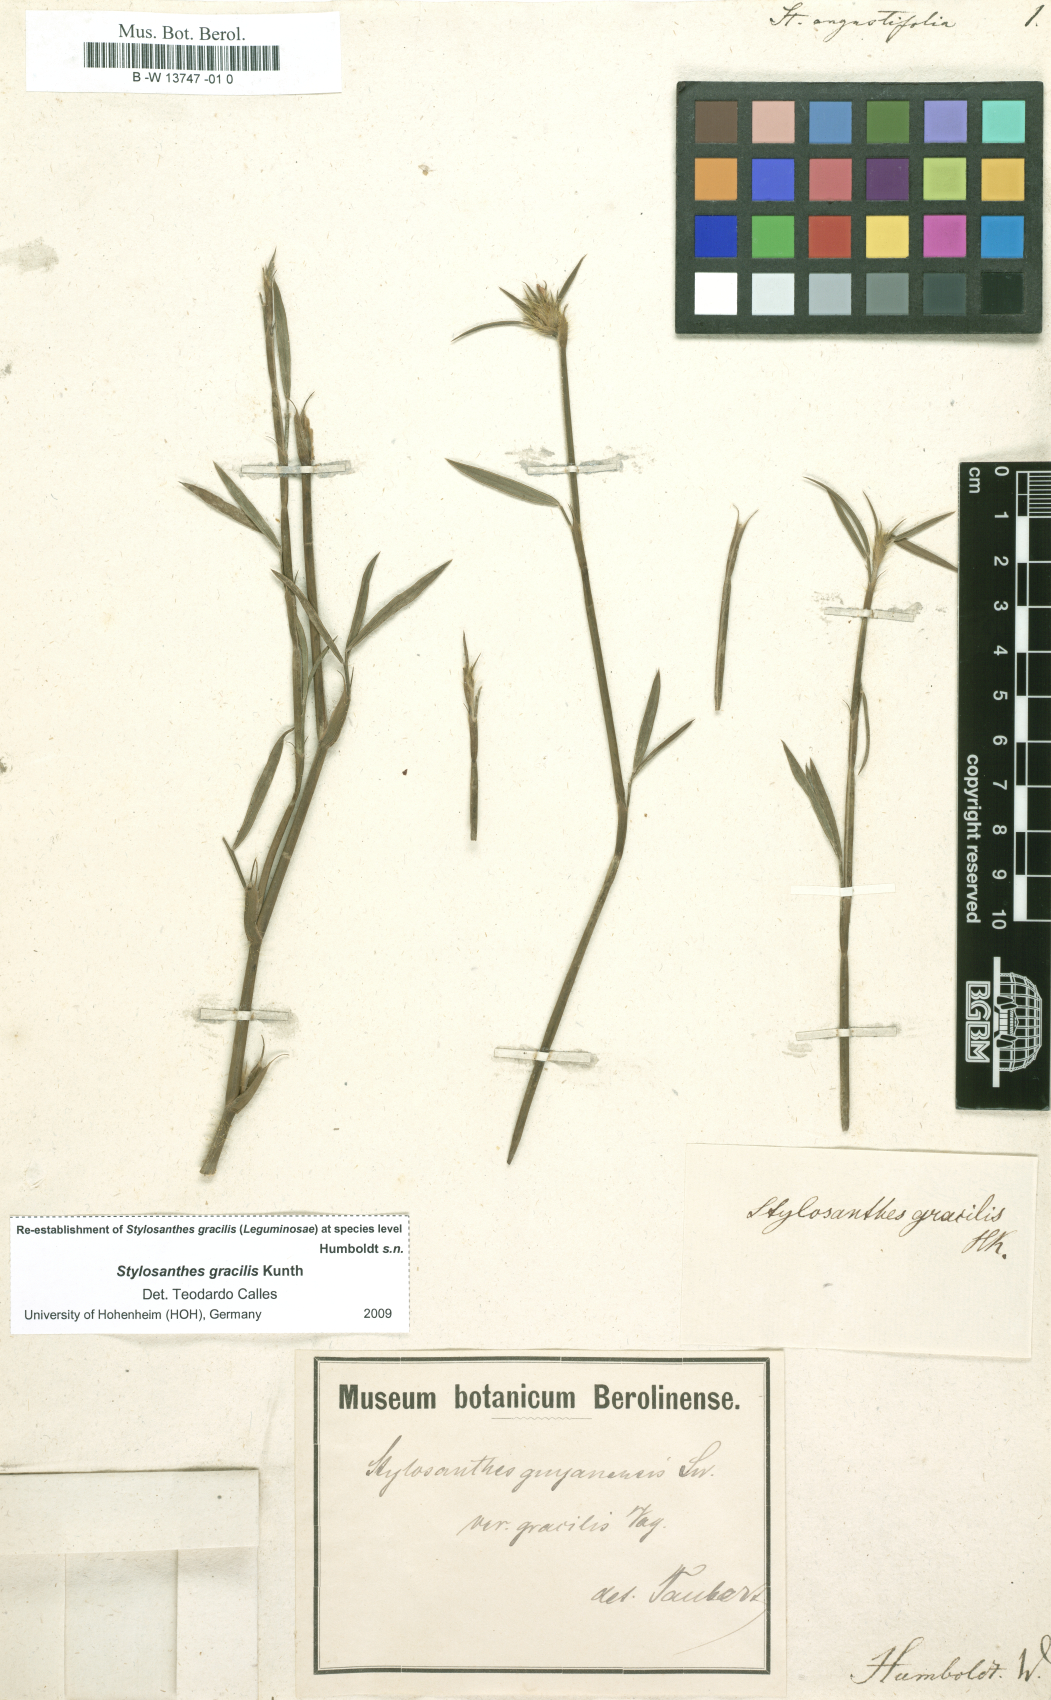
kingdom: Plantae
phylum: Tracheophyta
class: Magnoliopsida
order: Fabales
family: Fabaceae
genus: Stylosanthes
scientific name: Stylosanthes angustifolia
